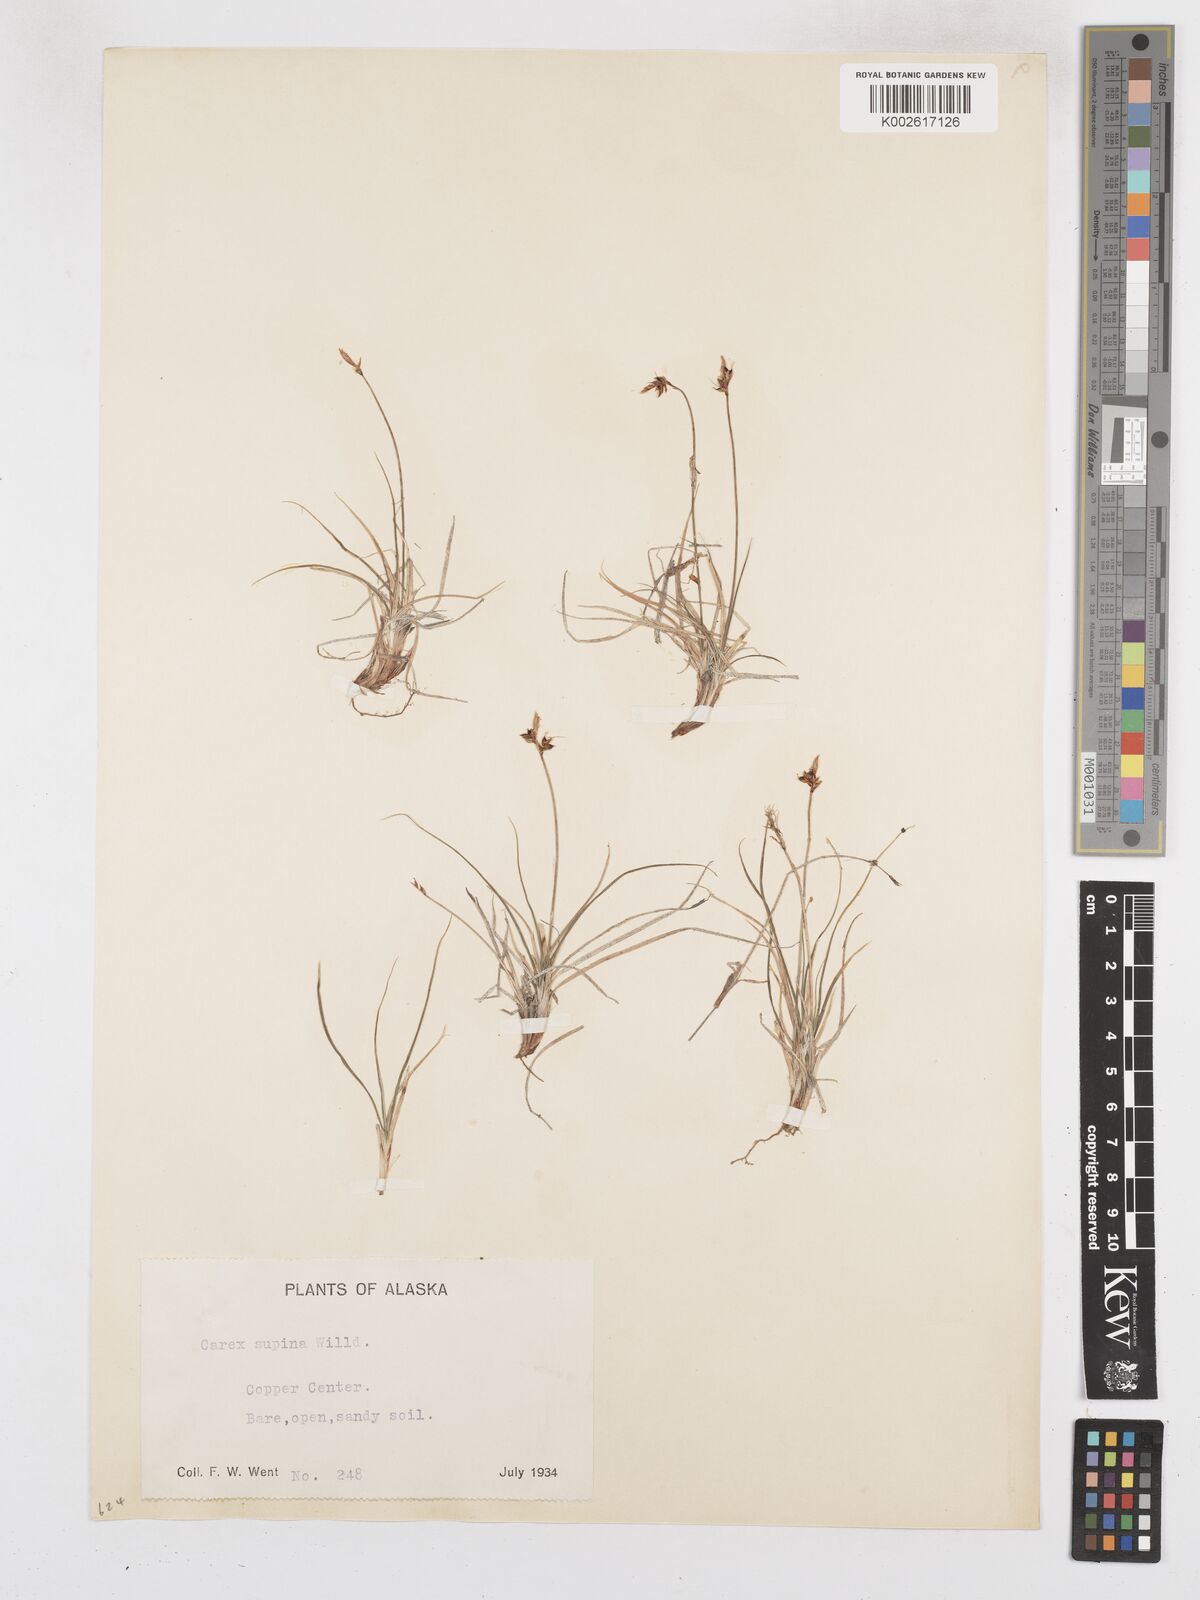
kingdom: Plantae
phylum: Tracheophyta
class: Liliopsida
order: Poales
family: Cyperaceae
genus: Carex
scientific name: Carex supina
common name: Lying-back sedge
